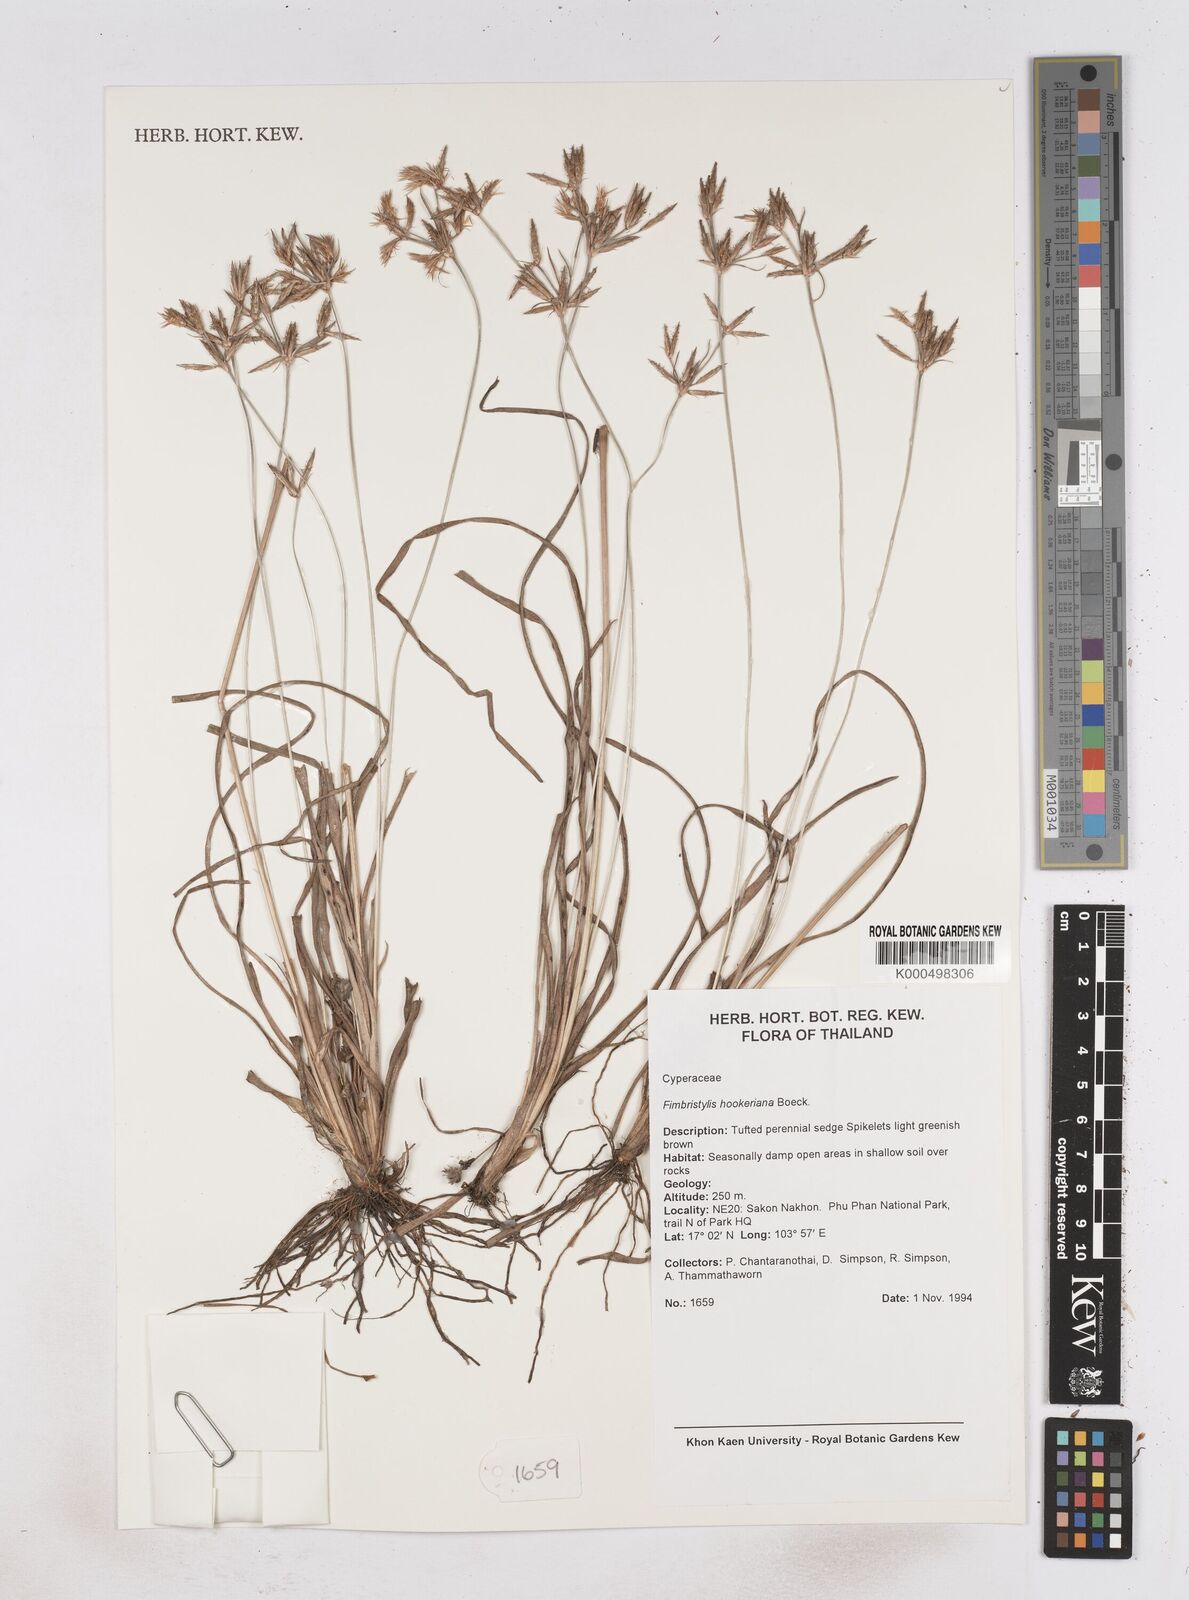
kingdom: Plantae
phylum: Tracheophyta
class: Liliopsida
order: Poales
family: Cyperaceae
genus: Fimbristylis
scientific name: Fimbristylis hookeriana
